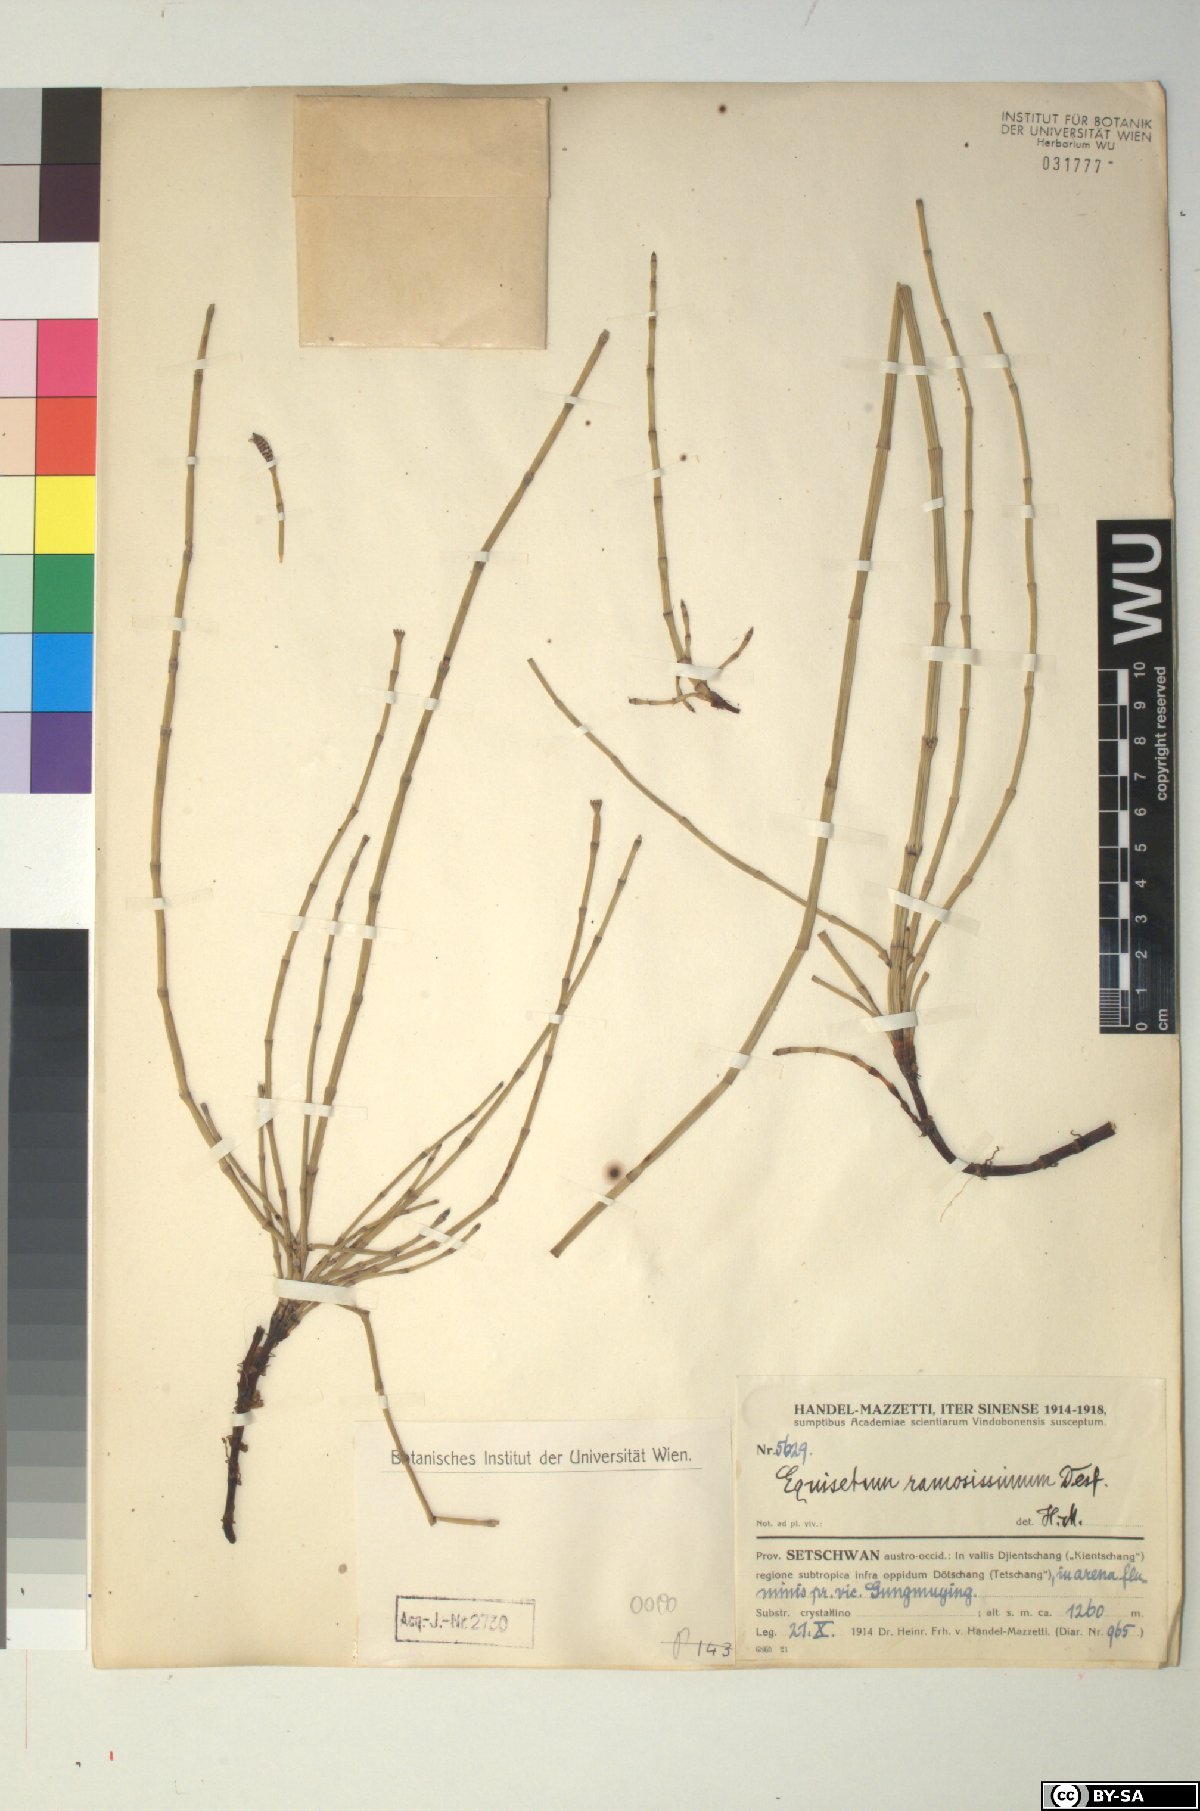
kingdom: Plantae
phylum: Tracheophyta
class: Polypodiopsida
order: Equisetales
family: Equisetaceae
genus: Equisetum
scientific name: Equisetum ramosissimum
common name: Branched horsetail
